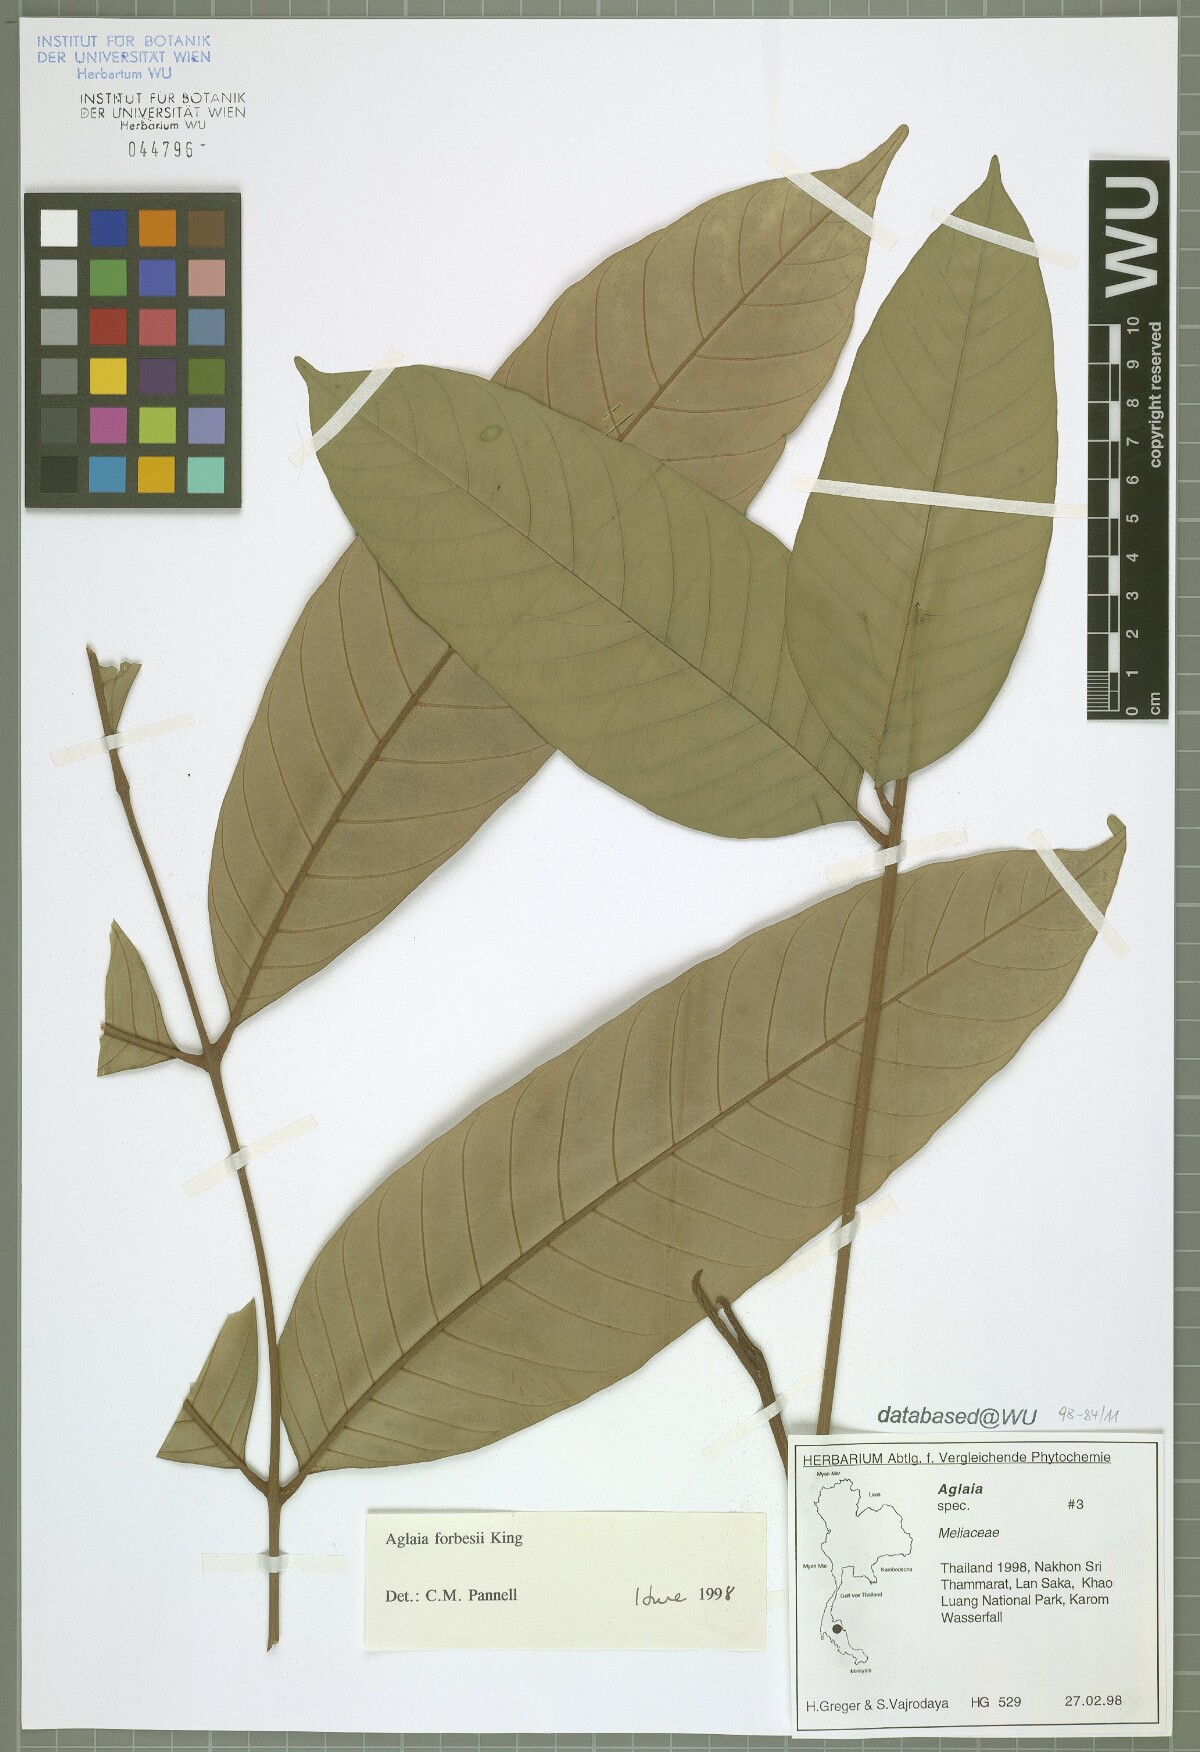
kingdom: Plantae
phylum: Tracheophyta
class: Magnoliopsida
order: Sapindales
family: Meliaceae
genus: Aglaia
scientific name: Aglaia forbesii
